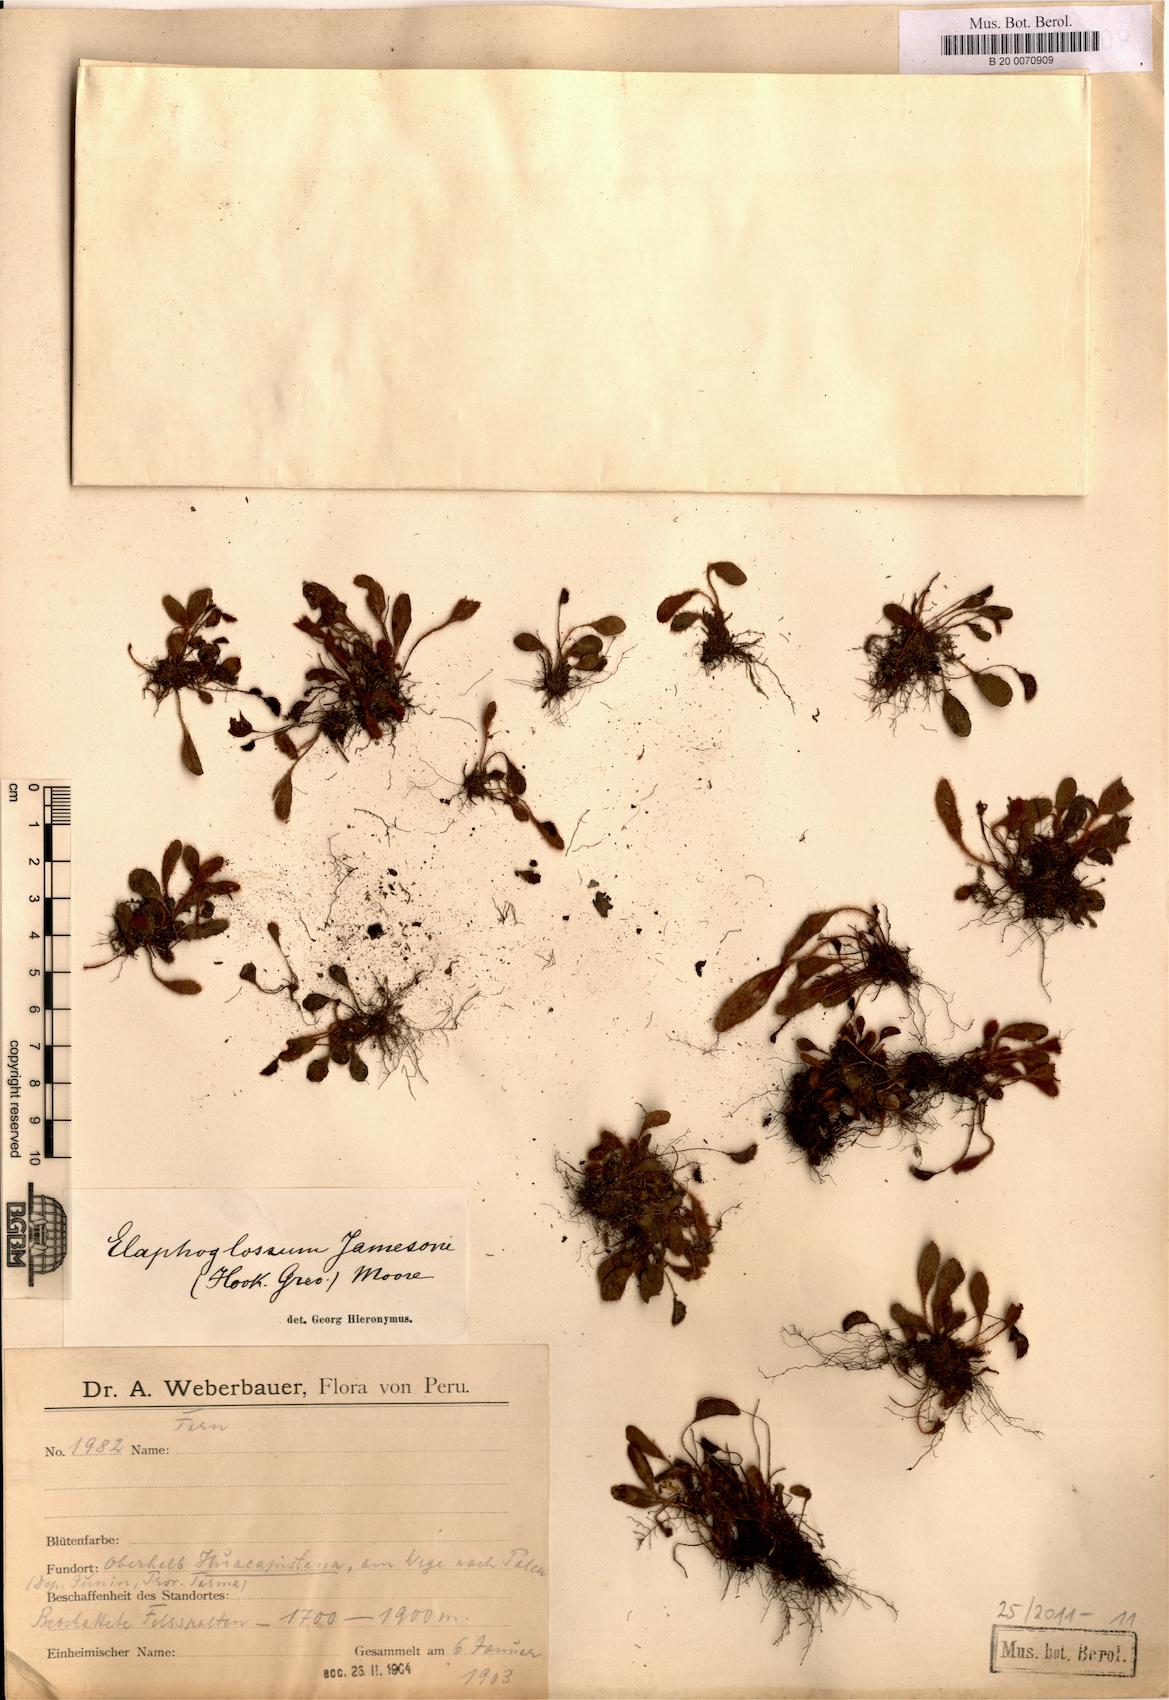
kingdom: Plantae
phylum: Tracheophyta
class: Polypodiopsida
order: Polypodiales
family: Dryopteridaceae
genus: Elaphoglossum
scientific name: Elaphoglossum piloselloides
